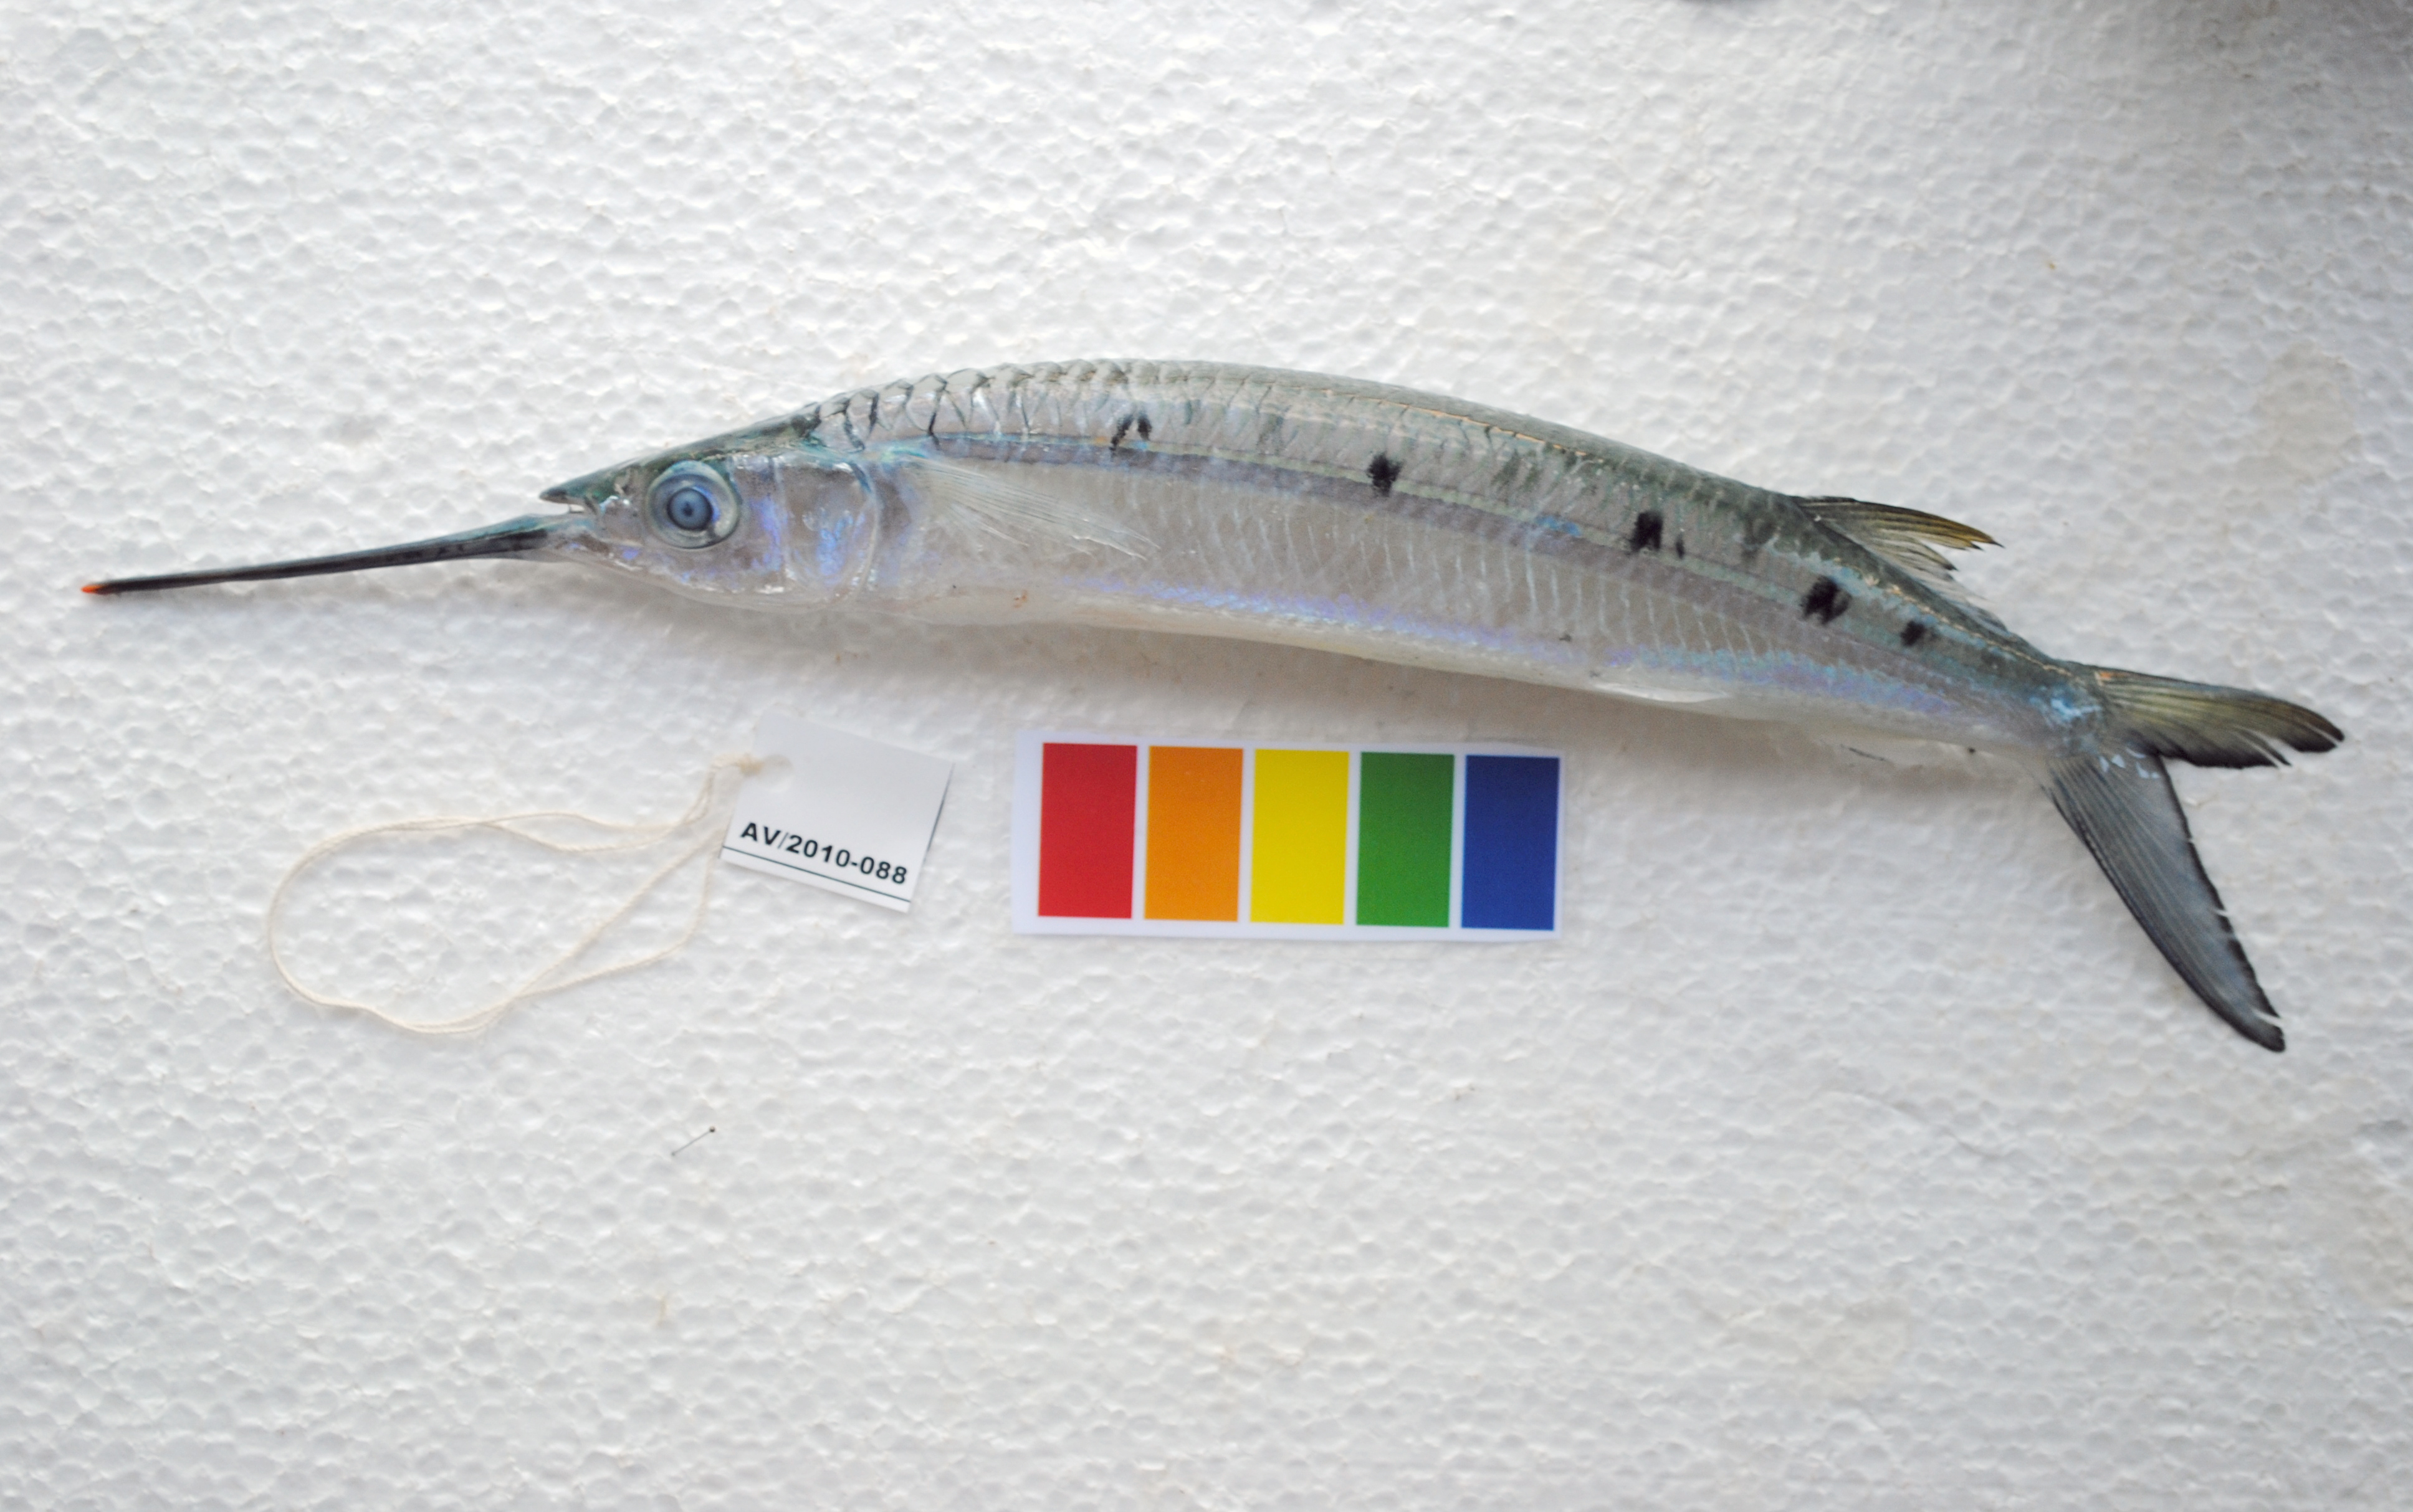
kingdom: Animalia
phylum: Chordata
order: Beloniformes
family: Hemiramphidae
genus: Hemiramphus
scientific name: Hemiramphus far
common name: Black-barred halfbeak
